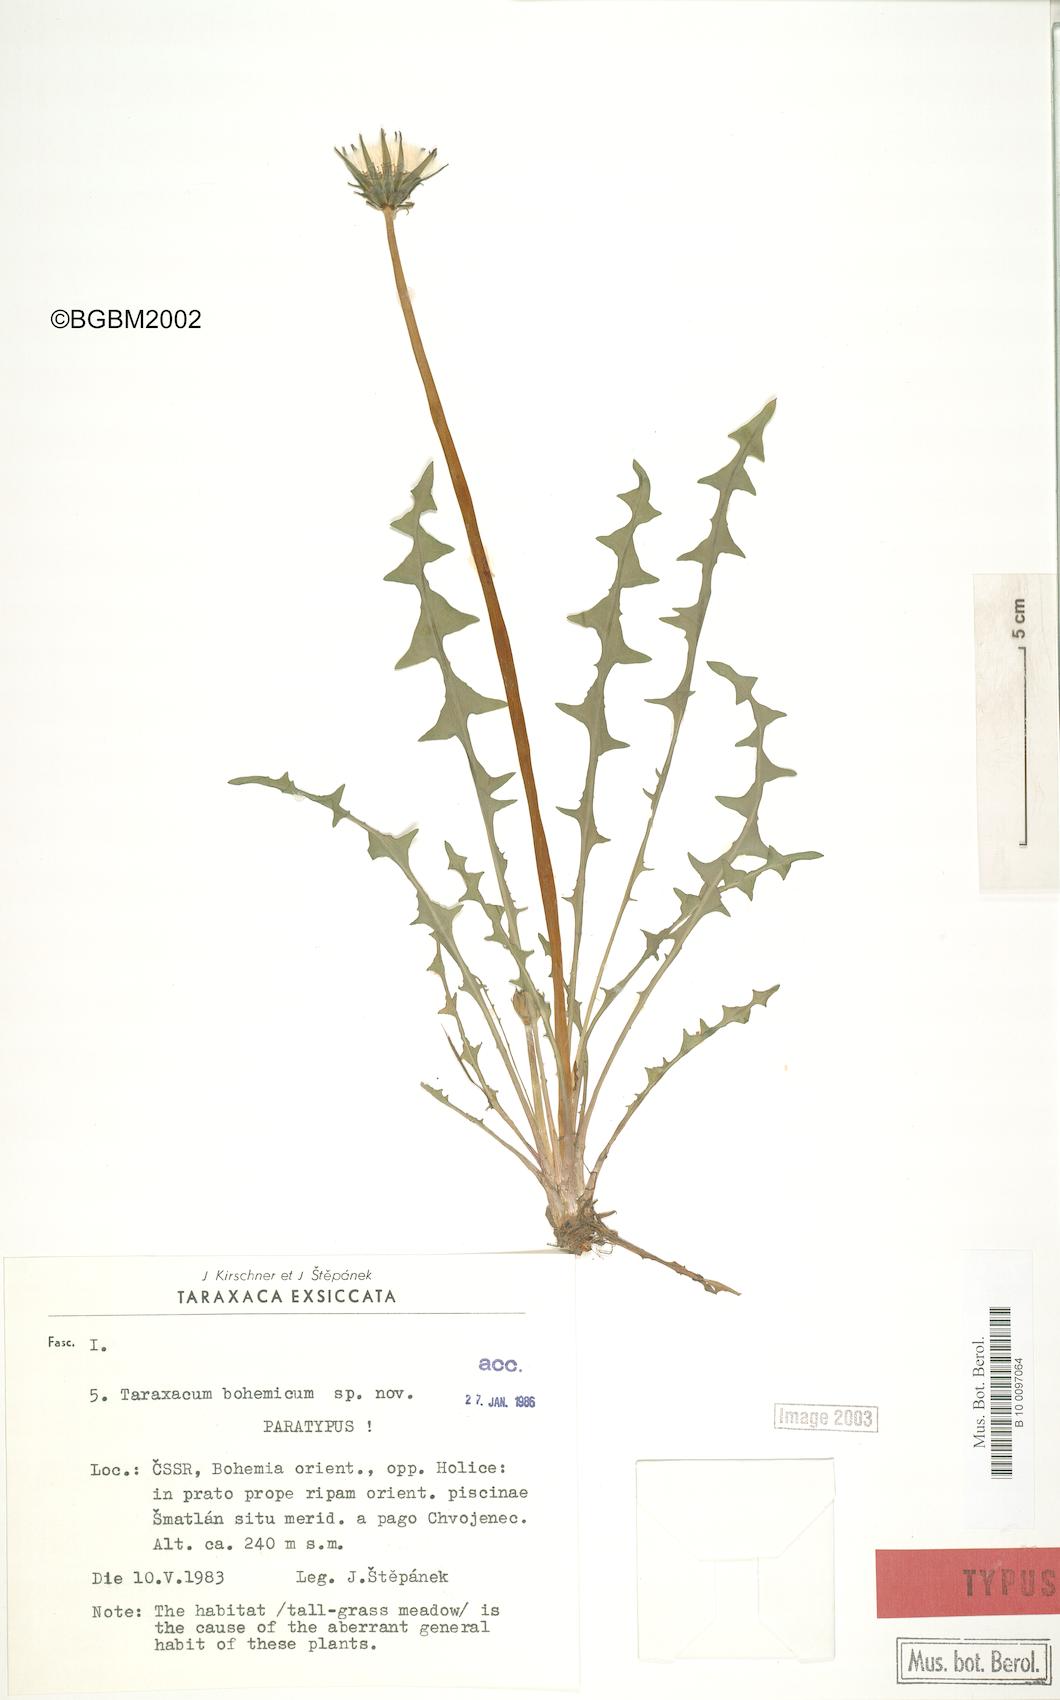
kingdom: Plantae
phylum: Tracheophyta
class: Magnoliopsida
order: Asterales
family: Asteraceae
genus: Taraxacum
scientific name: Taraxacum bohemicum
